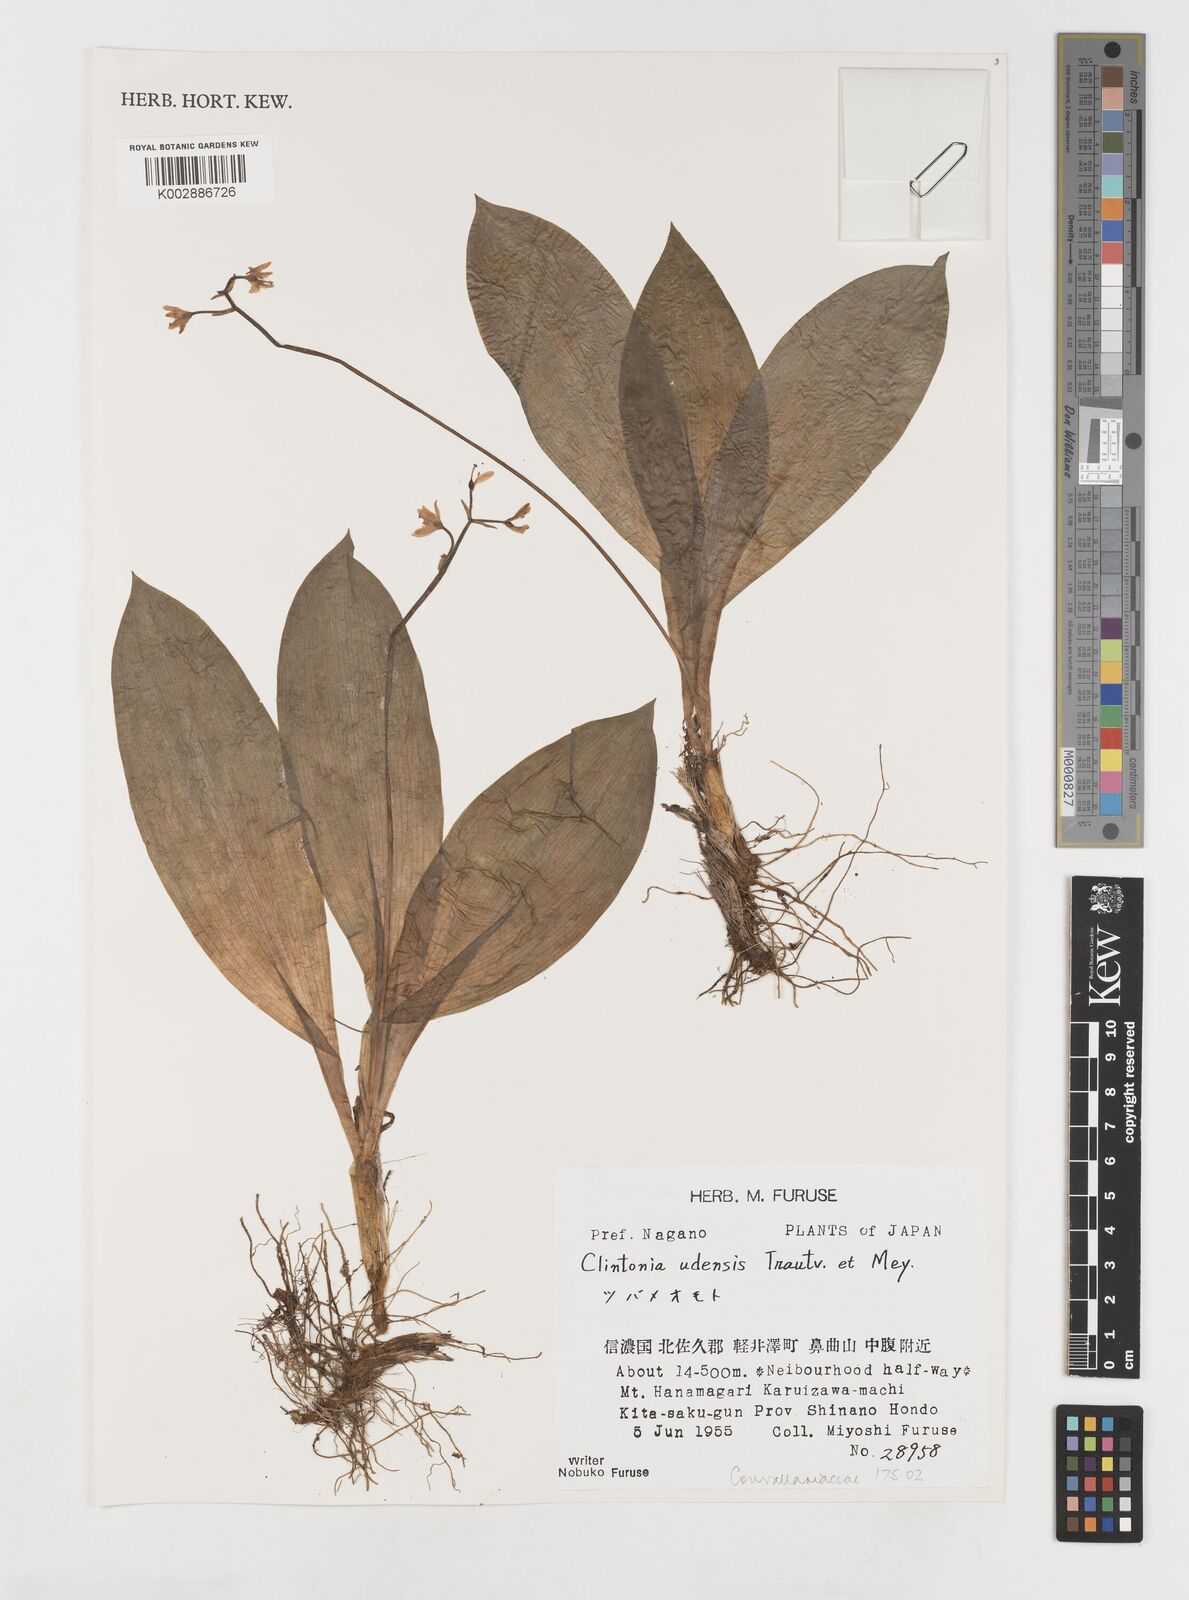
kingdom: Plantae
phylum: Tracheophyta
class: Liliopsida
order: Liliales
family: Liliaceae
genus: Clintonia
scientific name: Clintonia udensis
